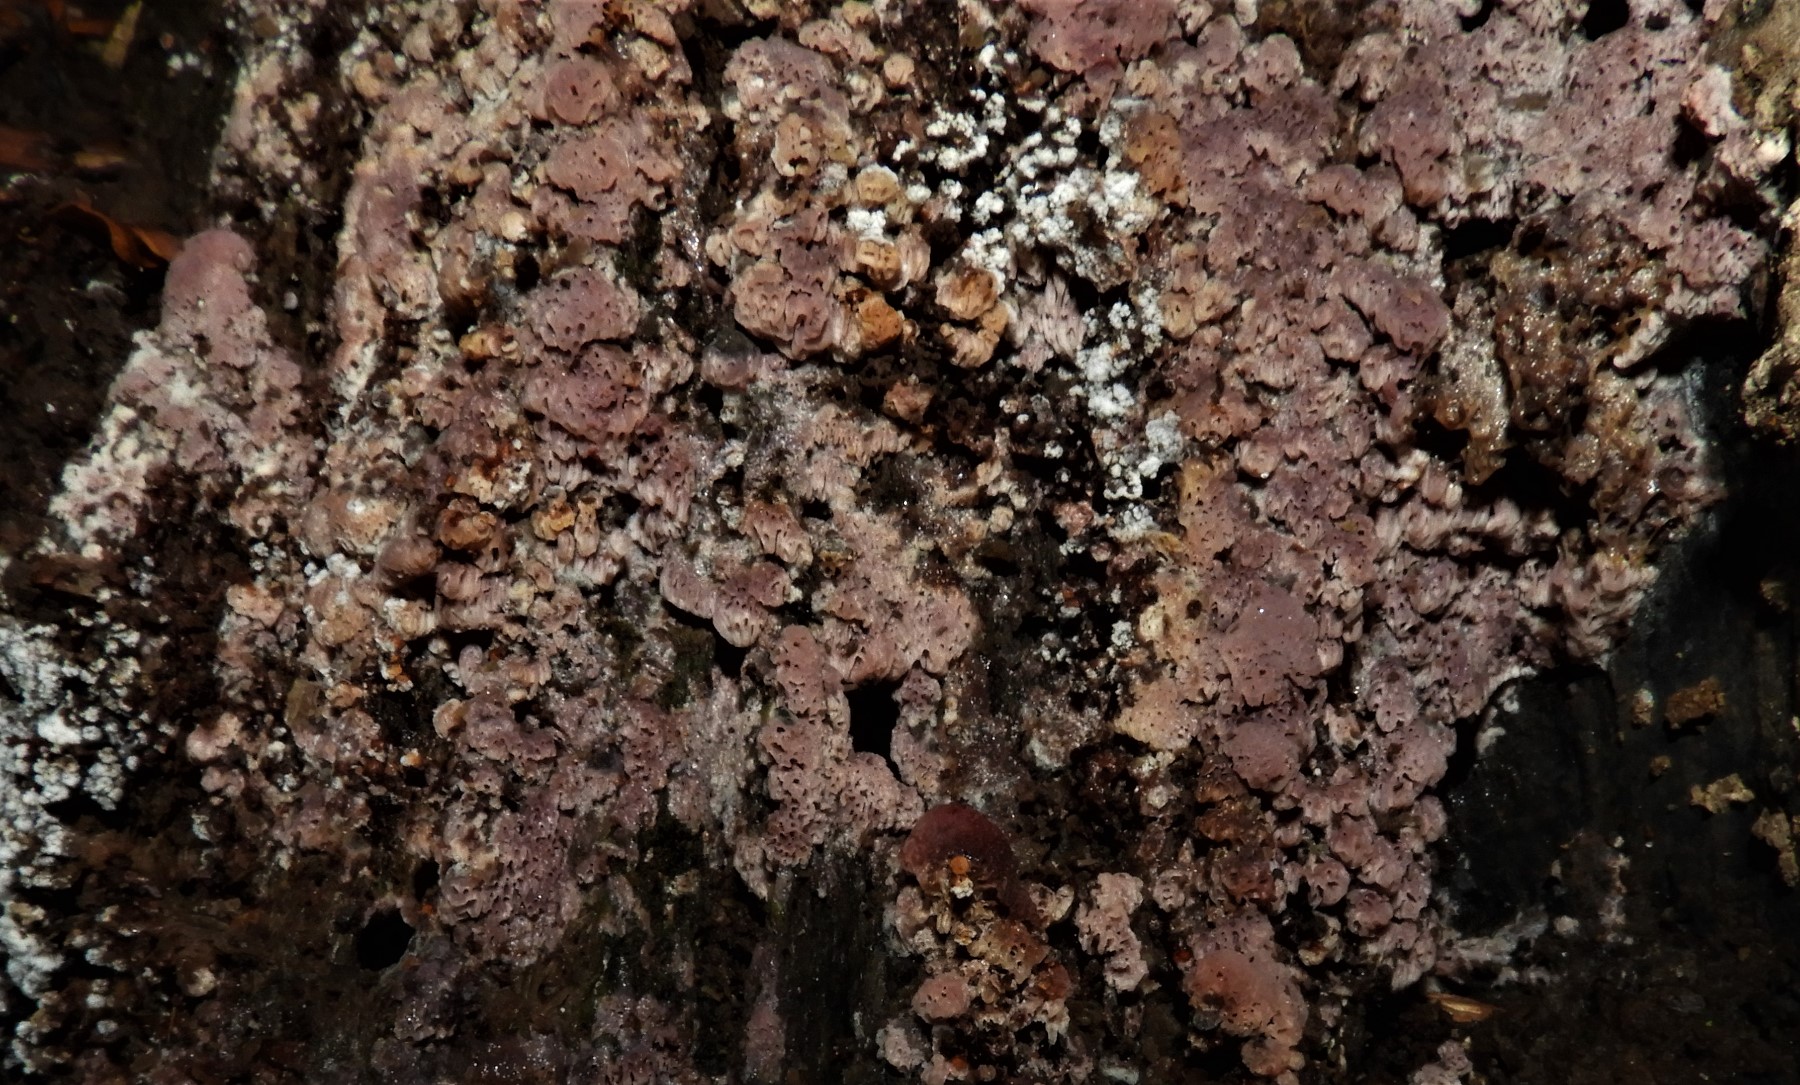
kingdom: Fungi
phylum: Basidiomycota
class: Agaricomycetes
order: Polyporales
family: Irpicaceae
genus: Ceriporia
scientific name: Ceriporia excelsa
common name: lilla voksporesvamp
